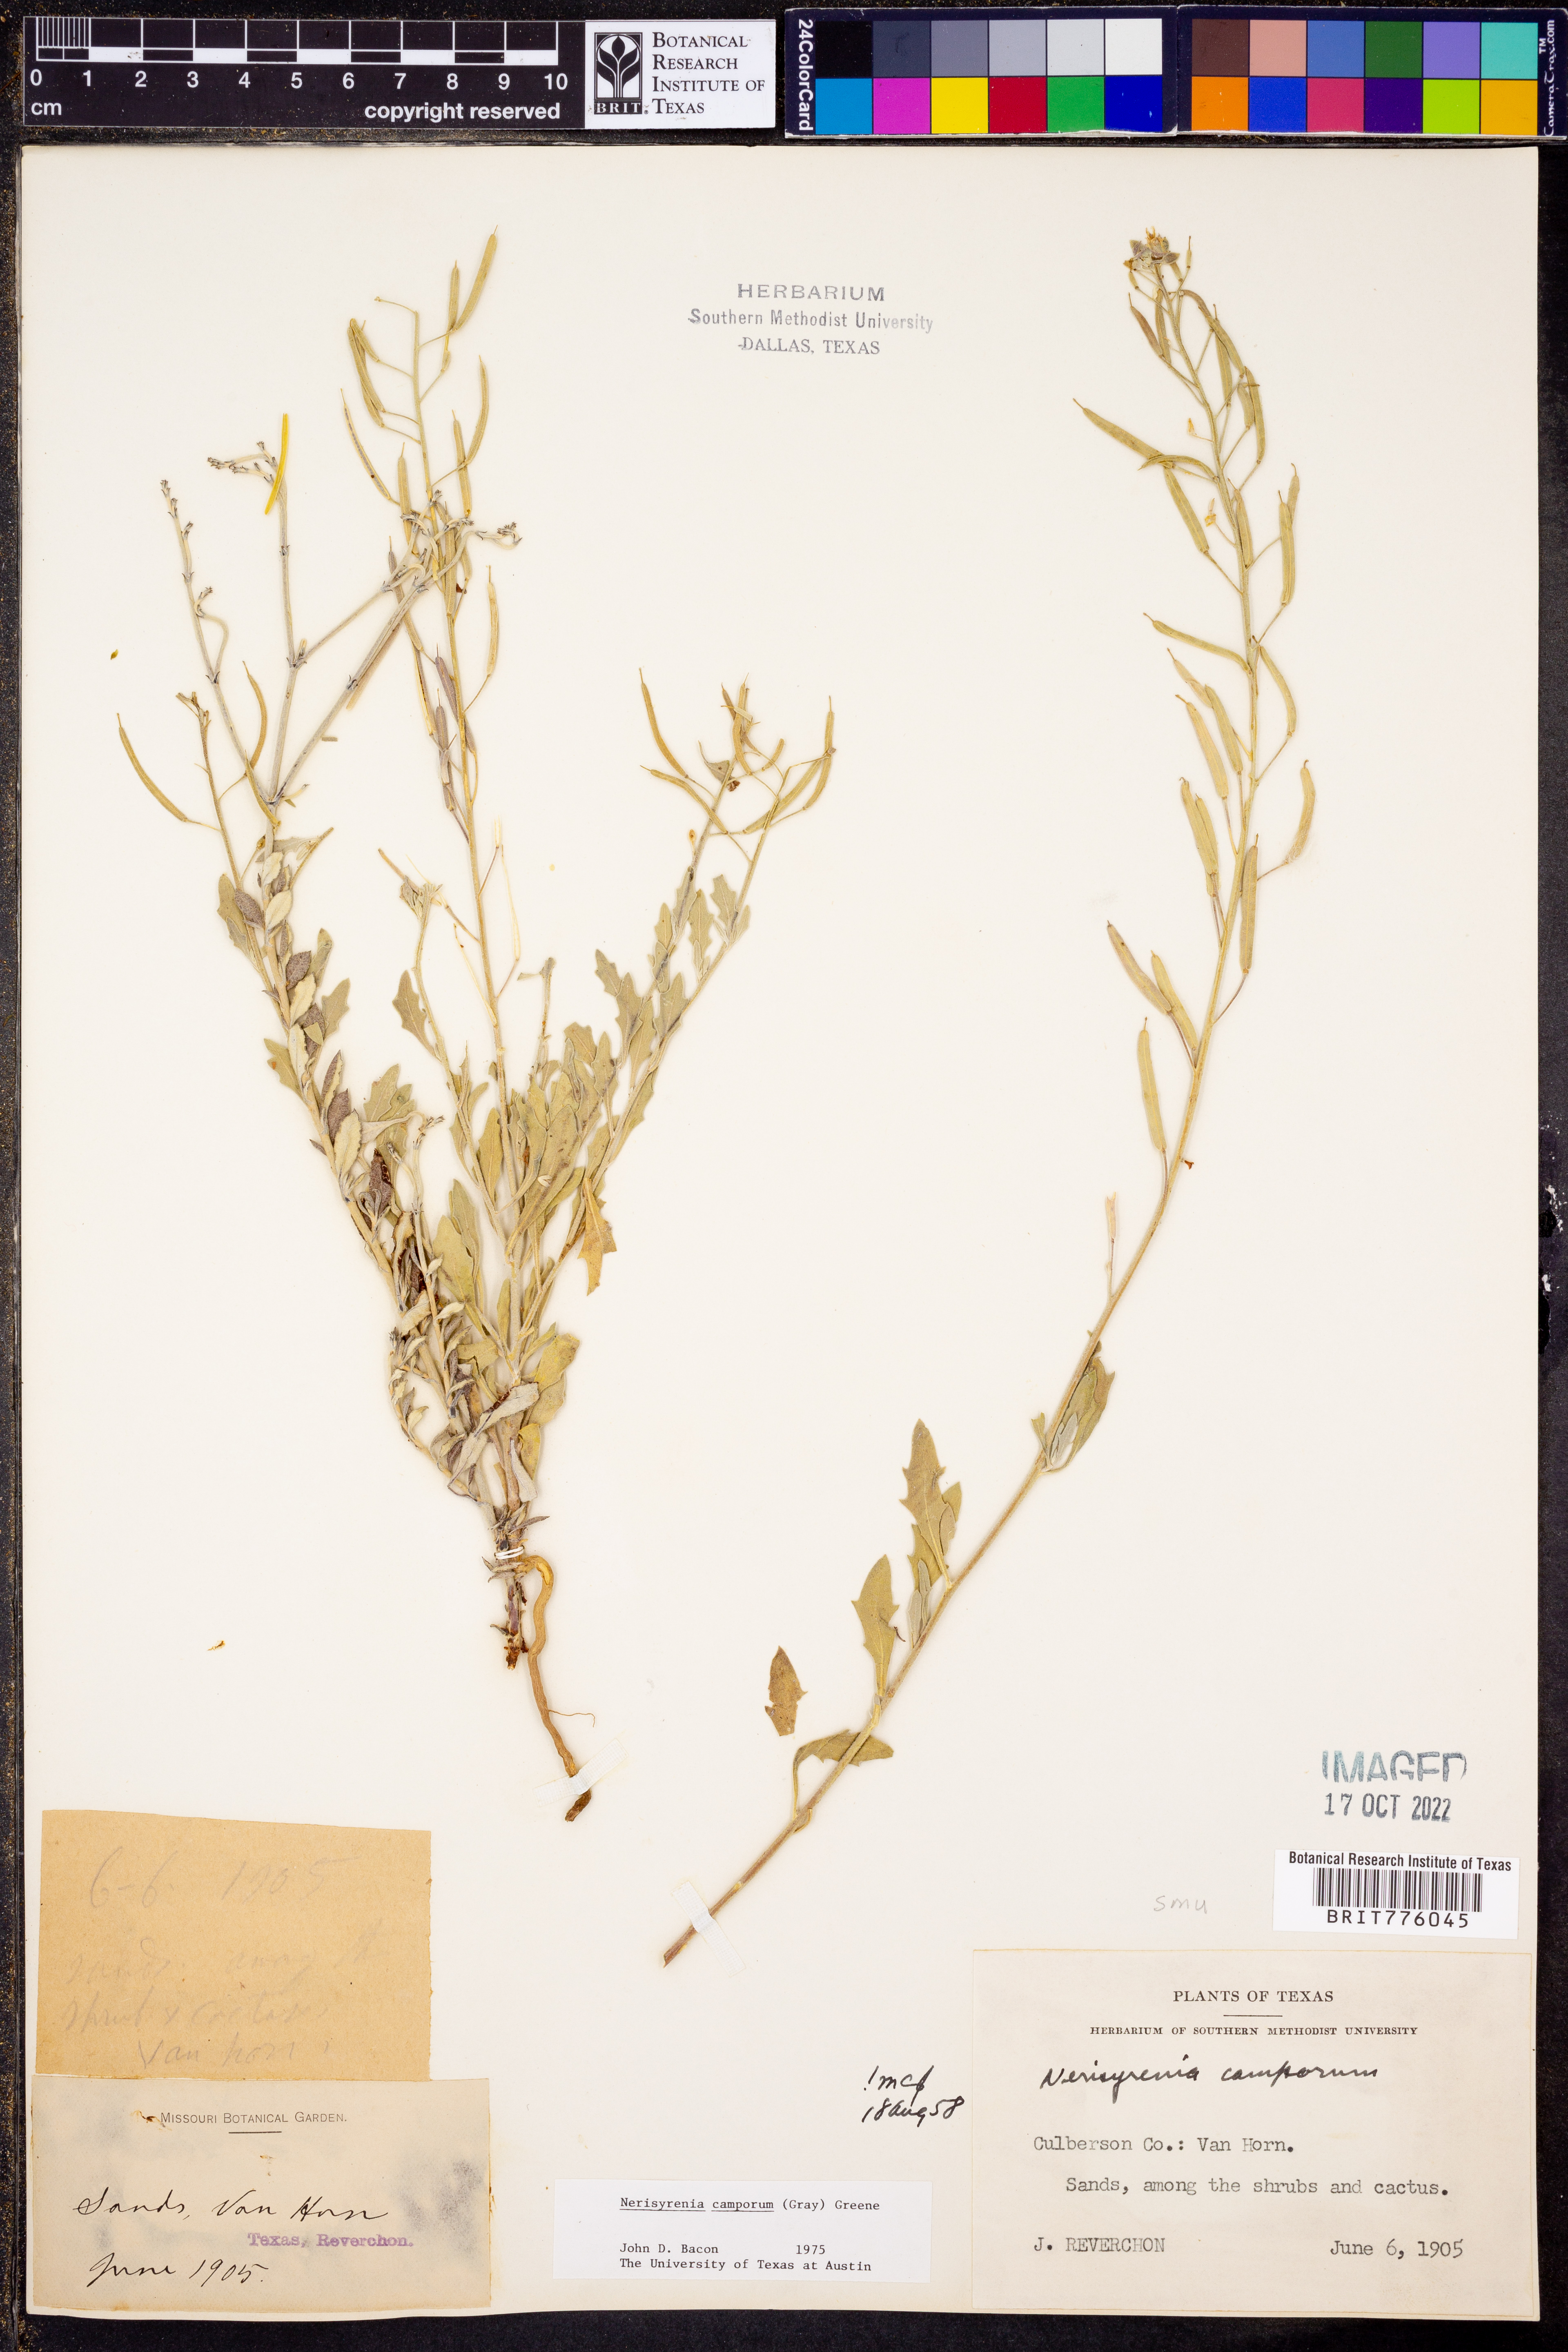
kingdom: Plantae
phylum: Tracheophyta
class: Magnoliopsida
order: Brassicales
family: Brassicaceae
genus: Nerisyrenia
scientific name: Nerisyrenia camporum
